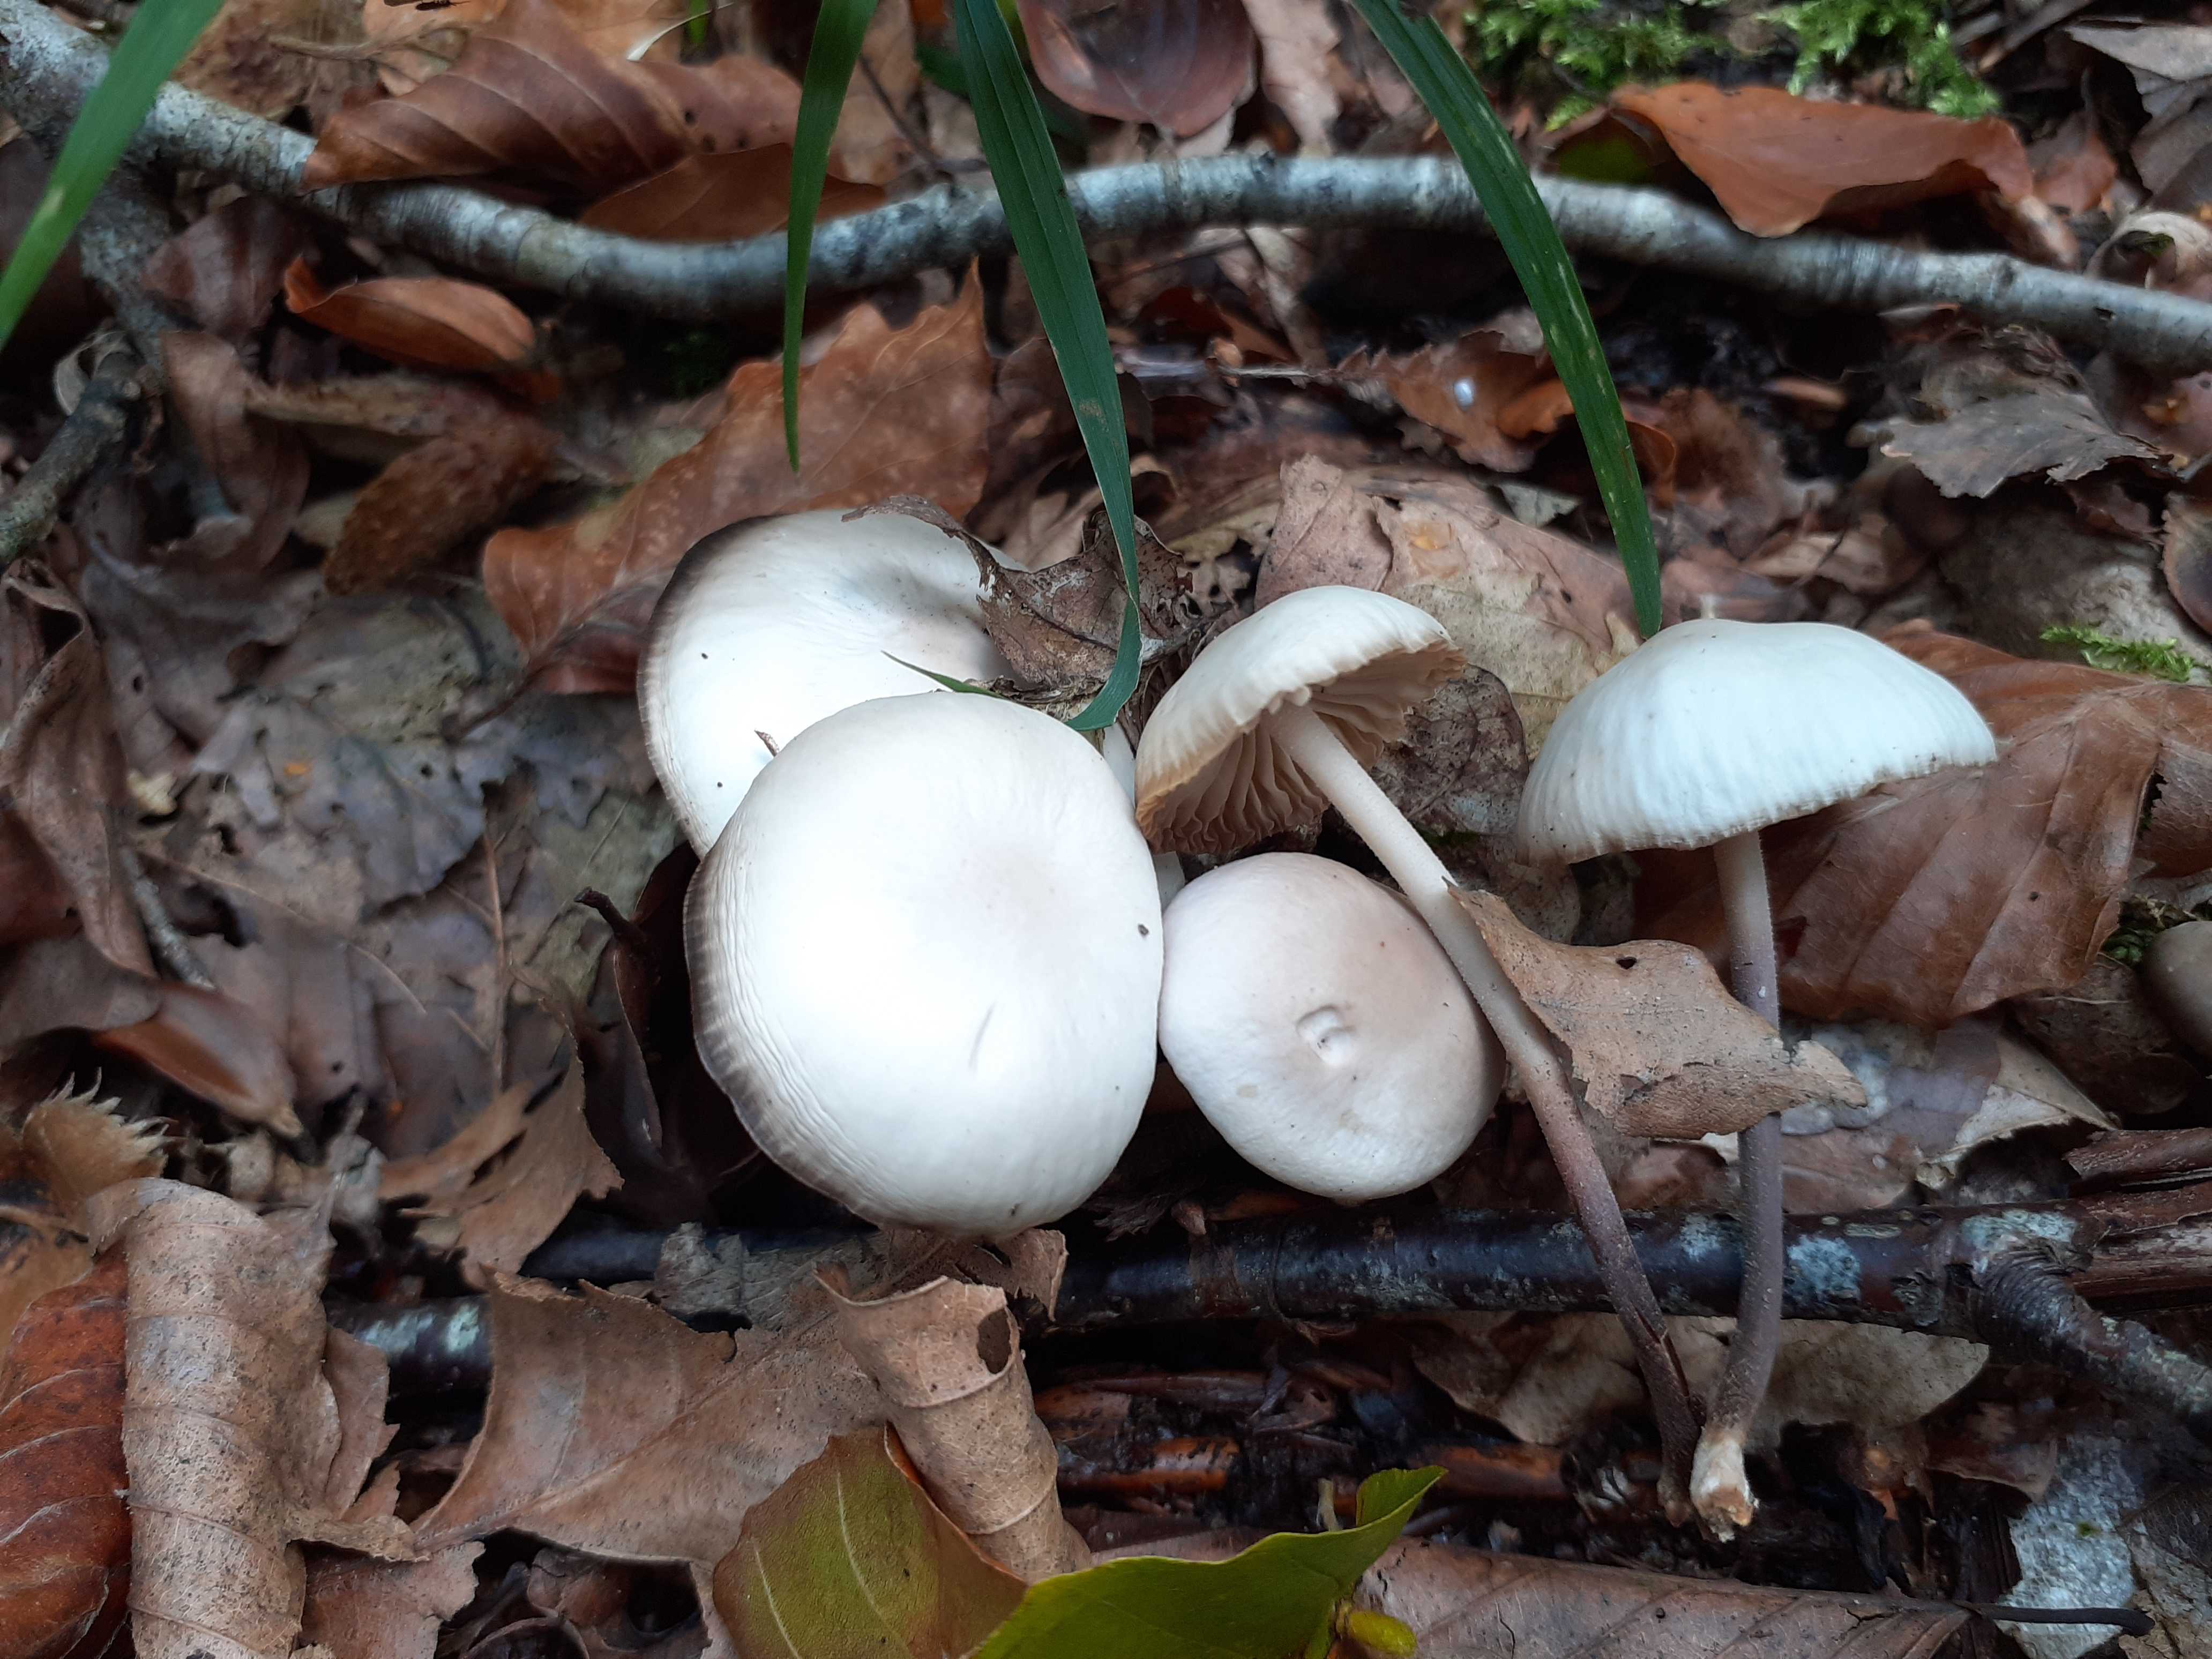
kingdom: Fungi
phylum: Basidiomycota
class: Agaricomycetes
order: Agaricales
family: Marasmiaceae
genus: Marasmius
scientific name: Marasmius wynneae
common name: hvælvet bruskhat
